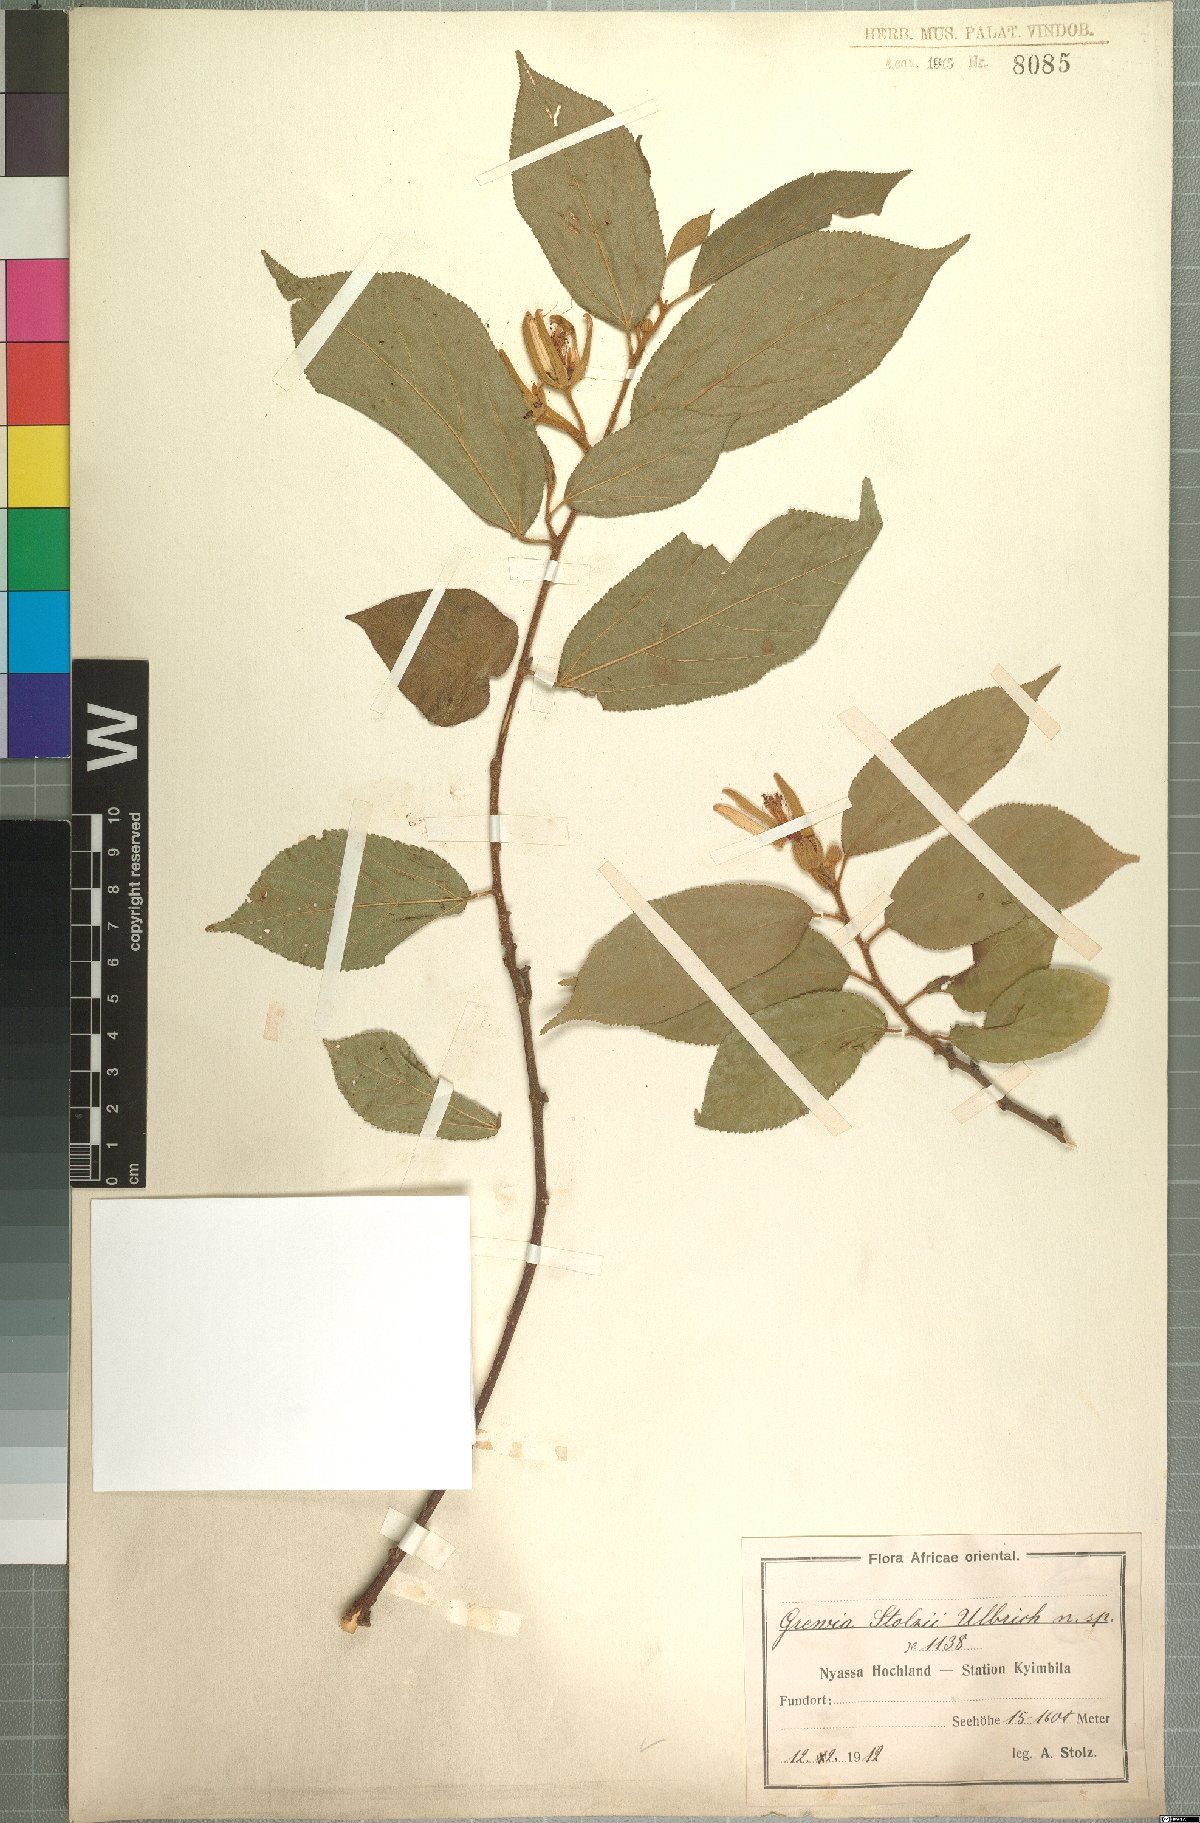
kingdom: Plantae
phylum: Tracheophyta
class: Magnoliopsida
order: Malvales
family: Malvaceae
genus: Grewia
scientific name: Grewia stolzii
